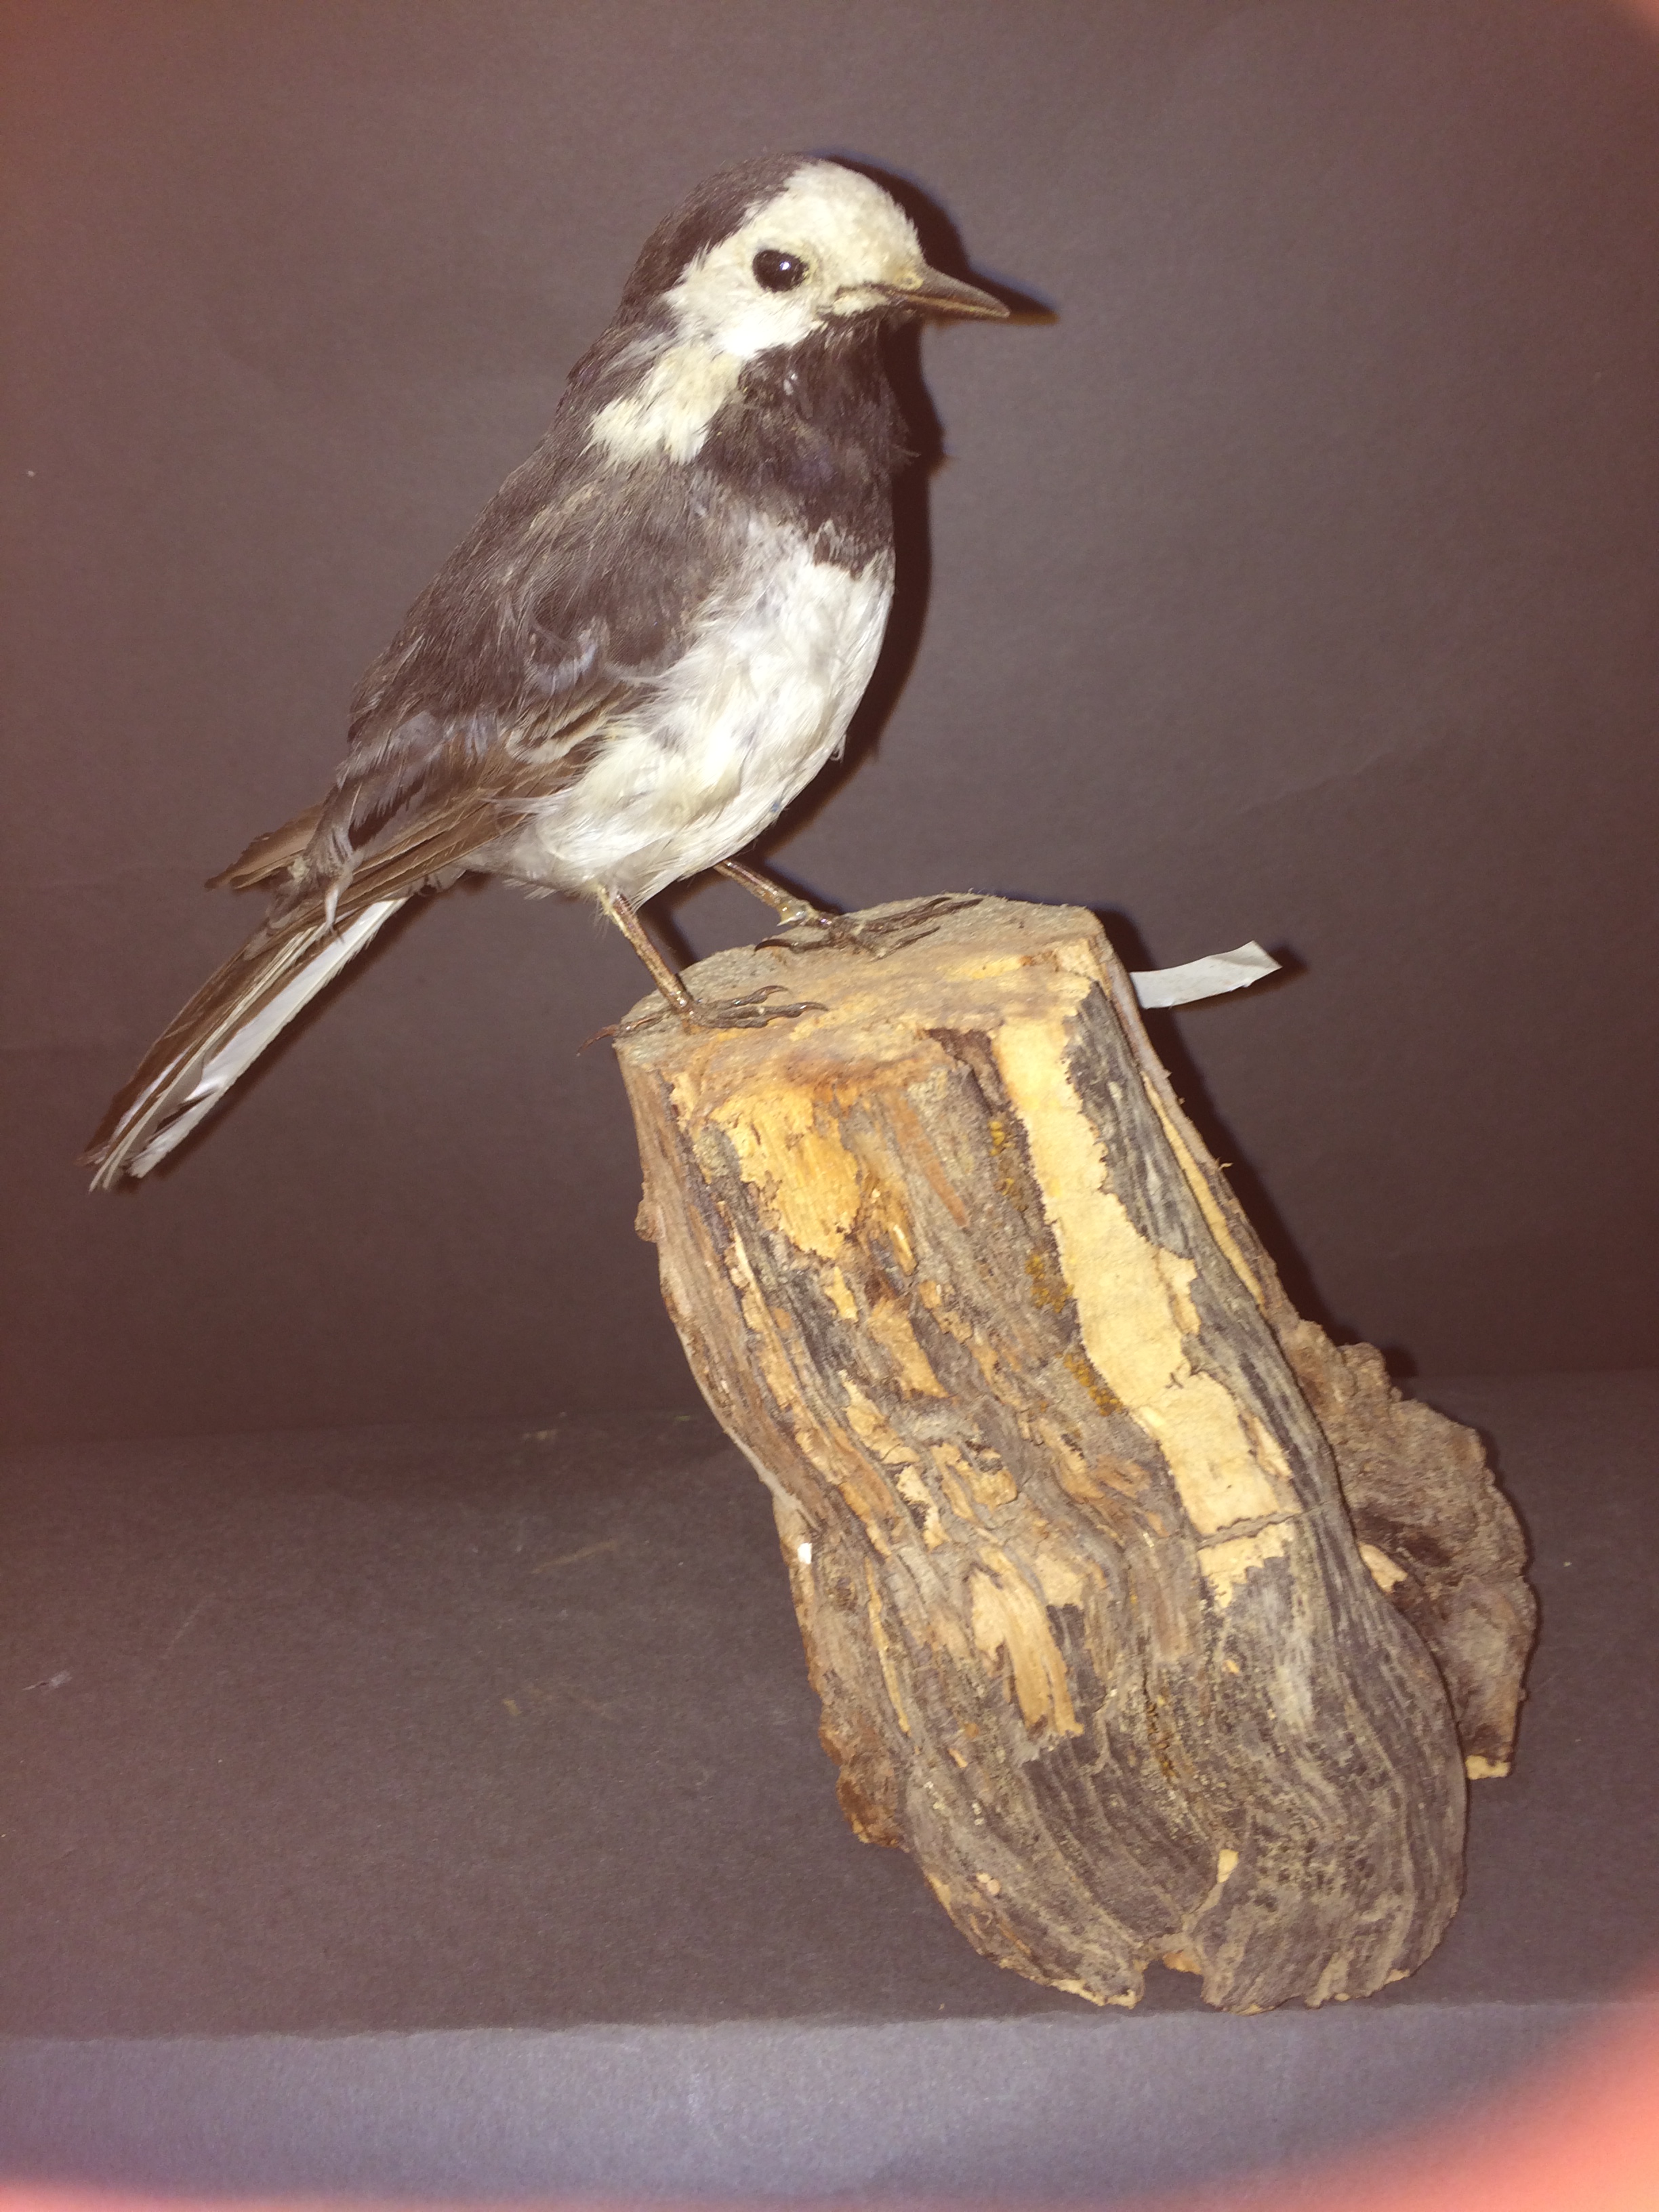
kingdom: Animalia
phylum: Chordata
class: Aves
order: Passeriformes
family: Motacillidae
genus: Motacilla
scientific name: Motacilla alba
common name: White wagtail
